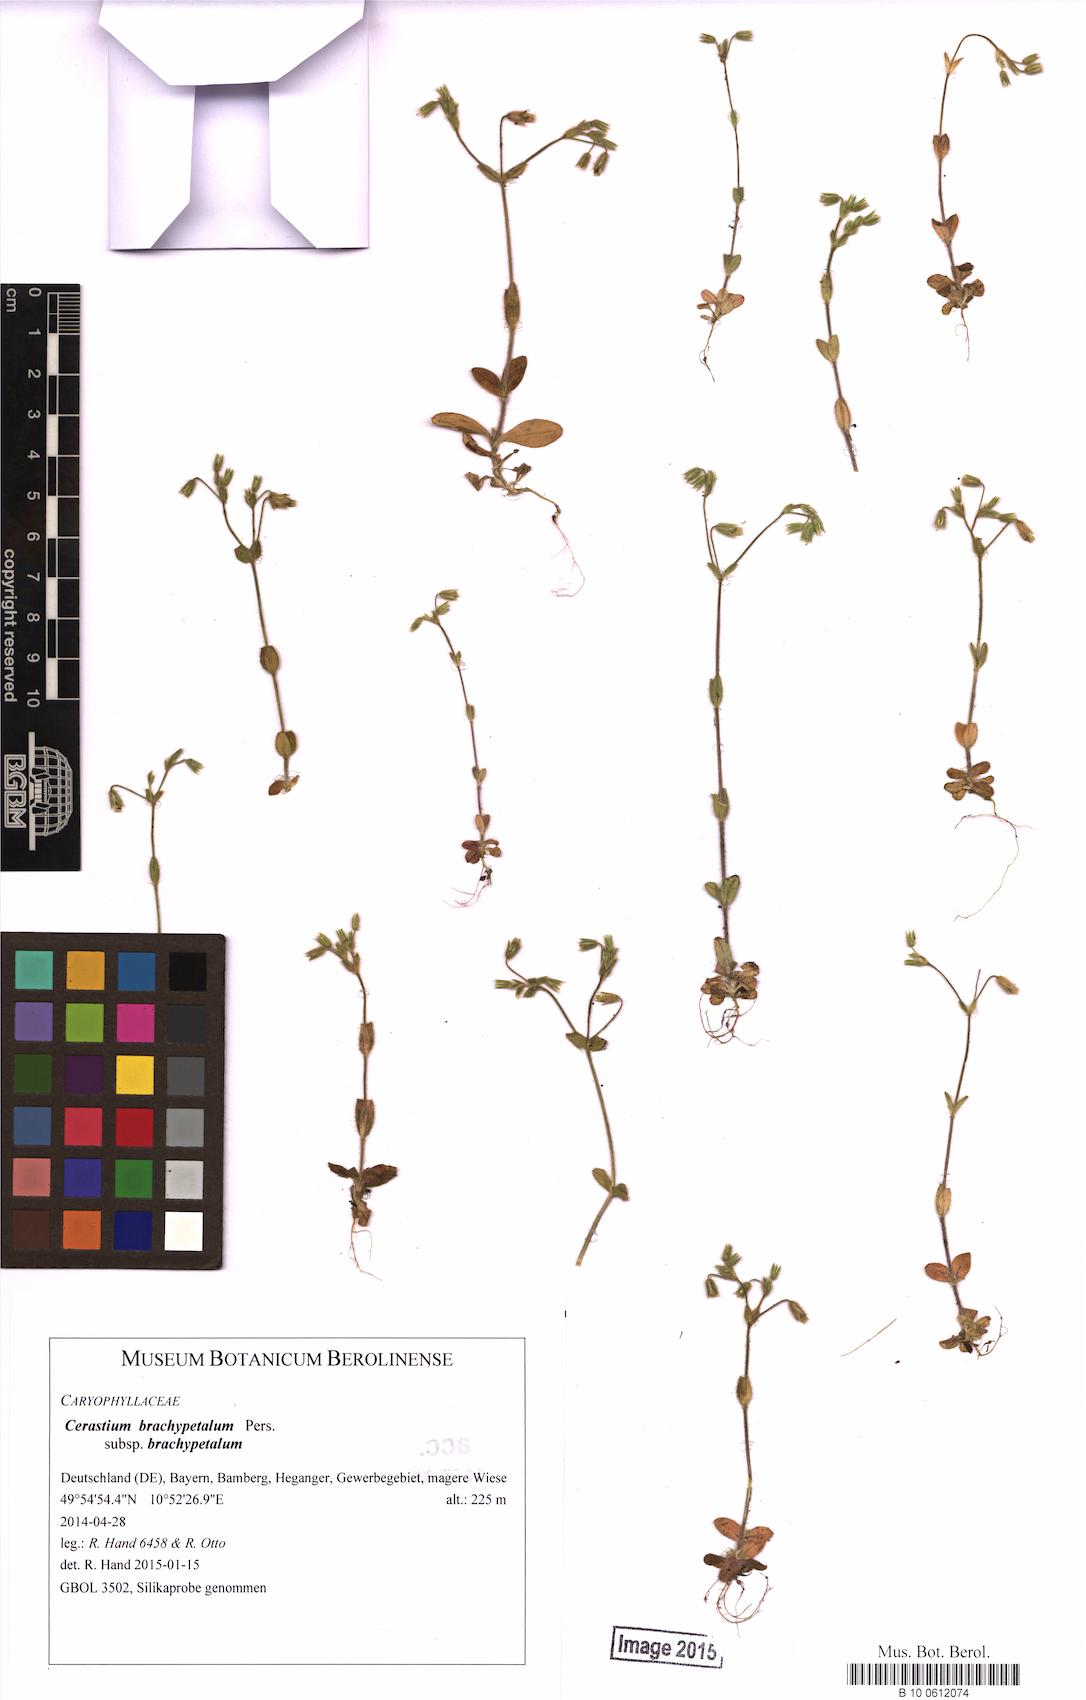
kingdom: Plantae
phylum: Tracheophyta
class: Magnoliopsida
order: Caryophyllales
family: Caryophyllaceae
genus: Cerastium
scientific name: Cerastium brachypetalum
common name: Grey mouse-ear
